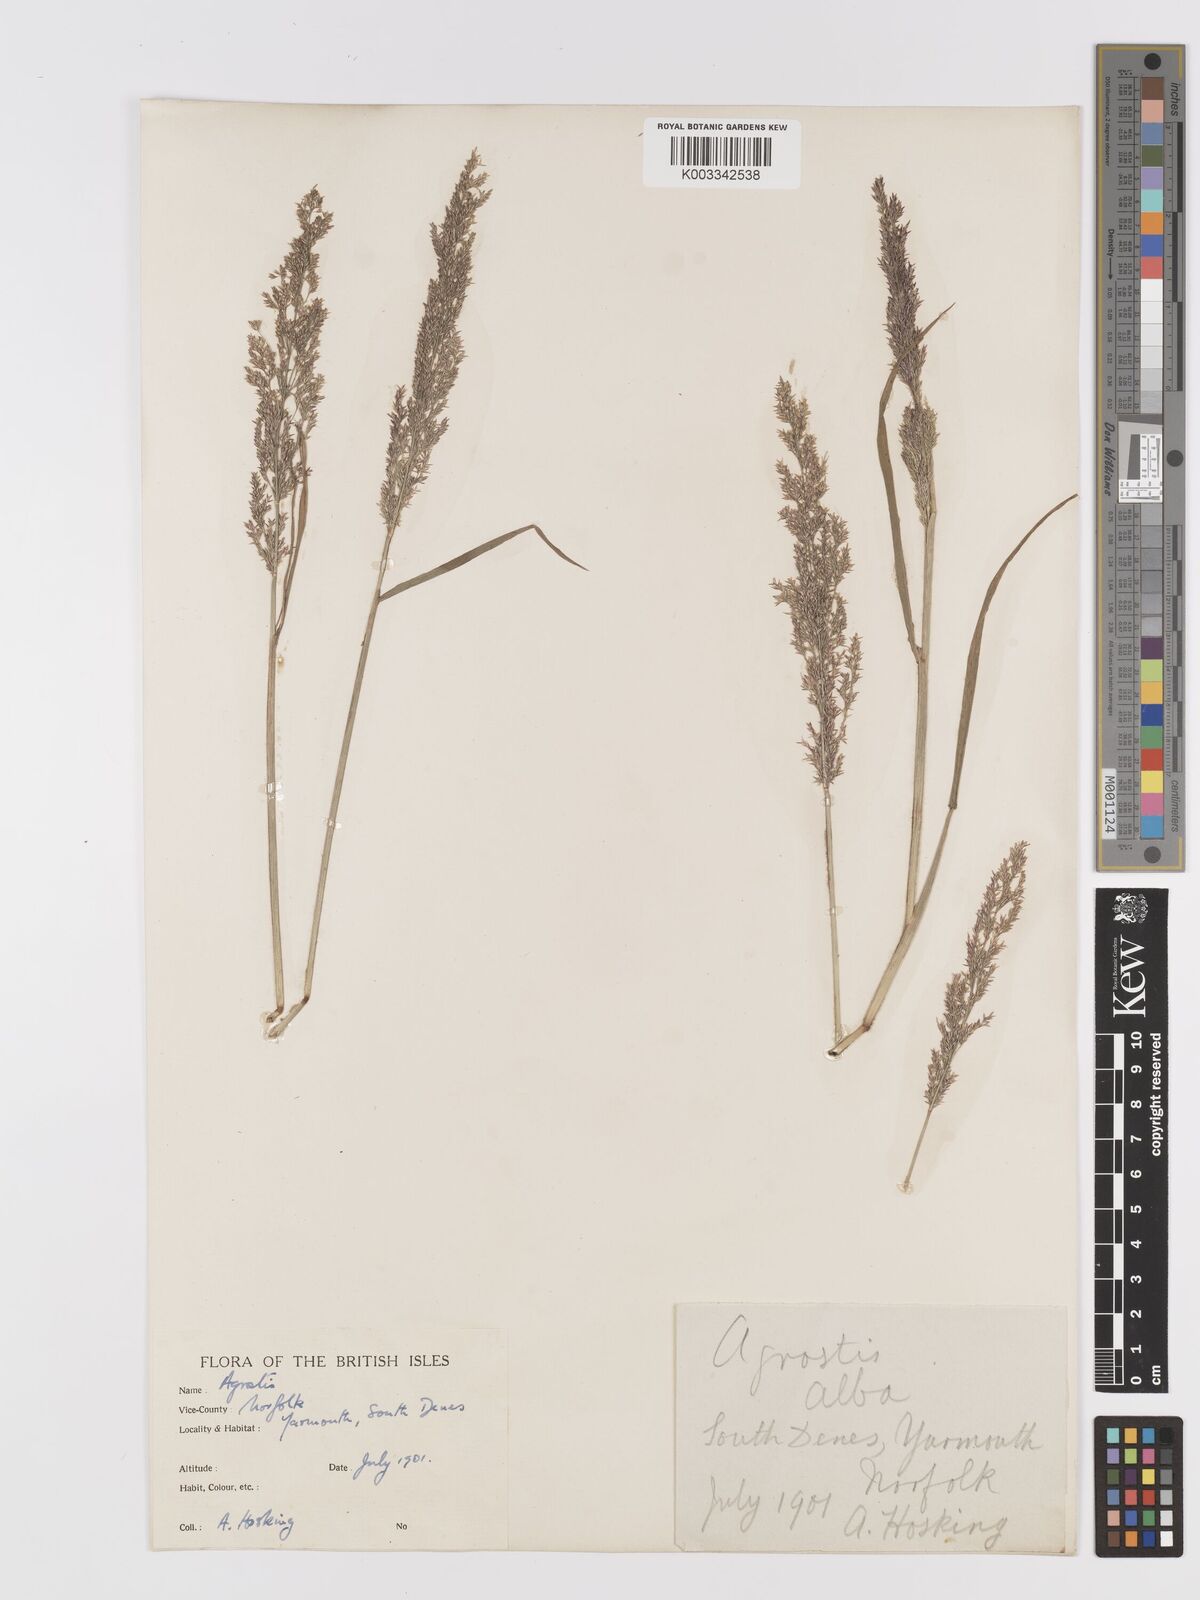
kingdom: Plantae
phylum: Tracheophyta
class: Liliopsida
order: Poales
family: Poaceae
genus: Agrostis
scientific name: Agrostis
